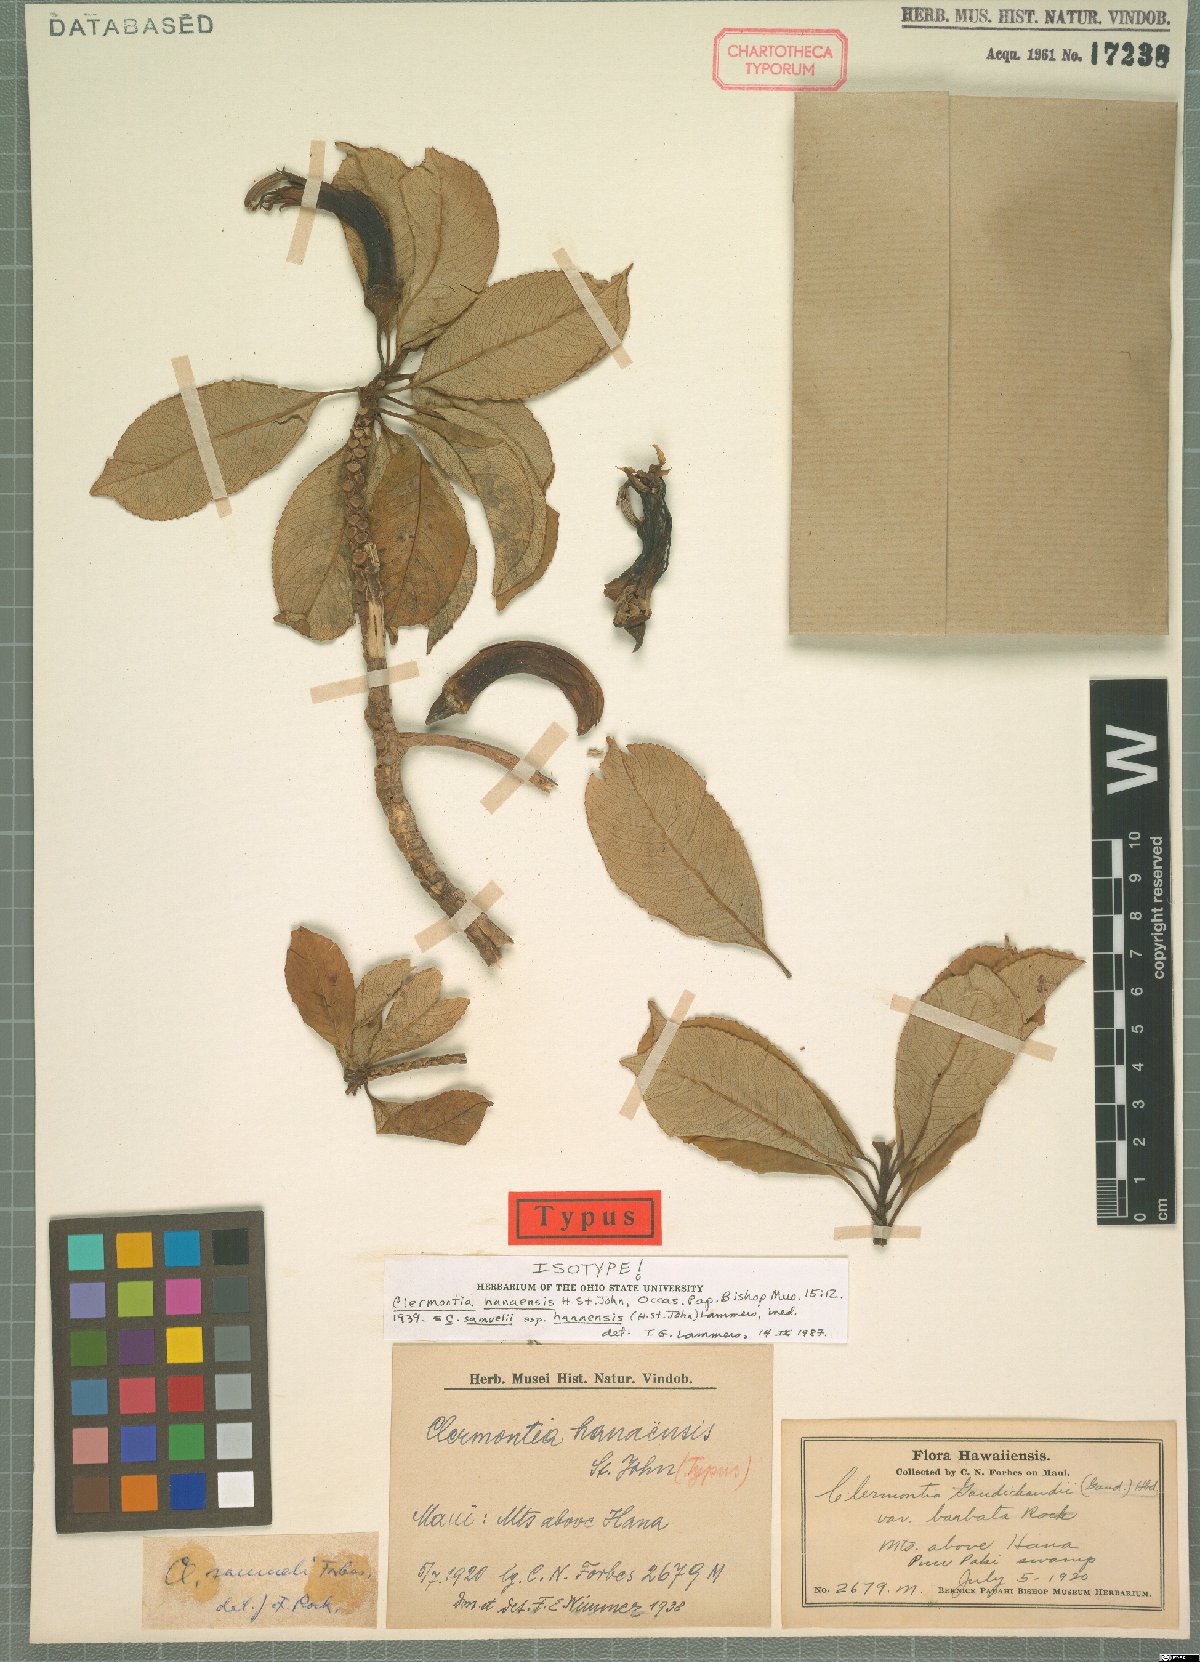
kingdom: Plantae
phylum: Tracheophyta
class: Magnoliopsida
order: Asterales
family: Campanulaceae
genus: Clermontia
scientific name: Clermontia samuelii
